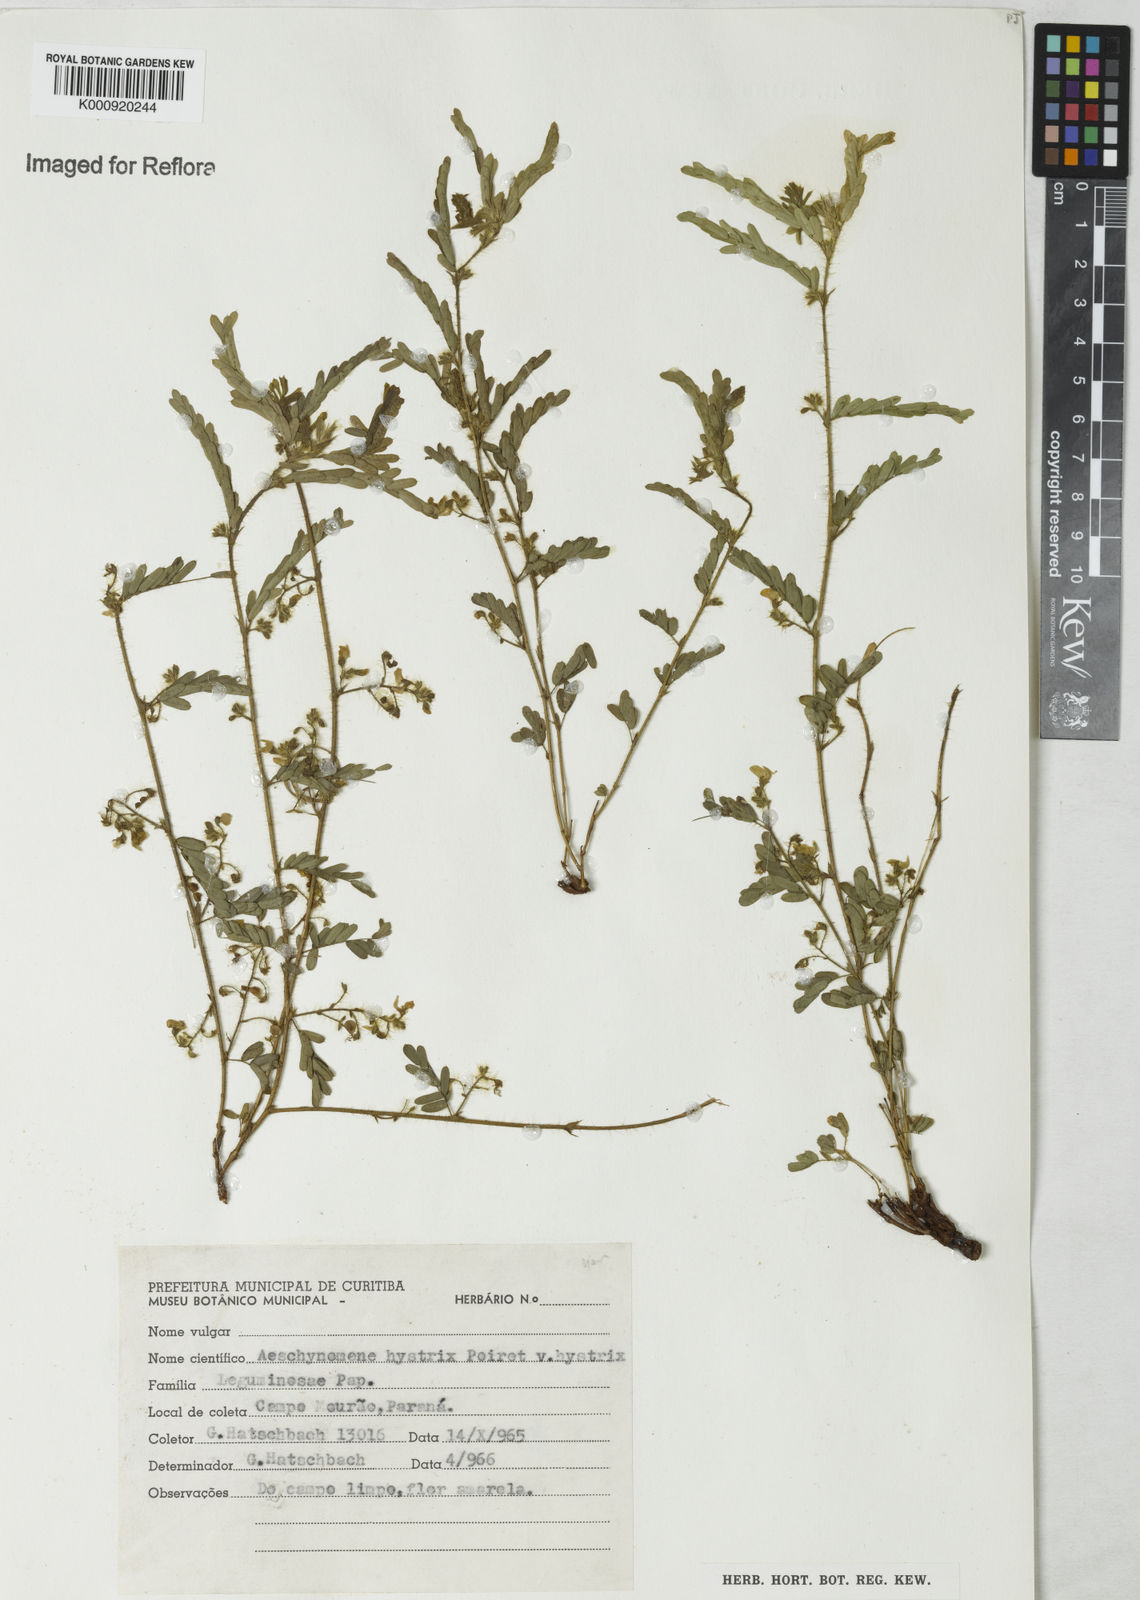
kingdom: Plantae
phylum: Tracheophyta
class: Magnoliopsida
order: Fabales
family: Fabaceae
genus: Ctenodon
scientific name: Ctenodon histrix
